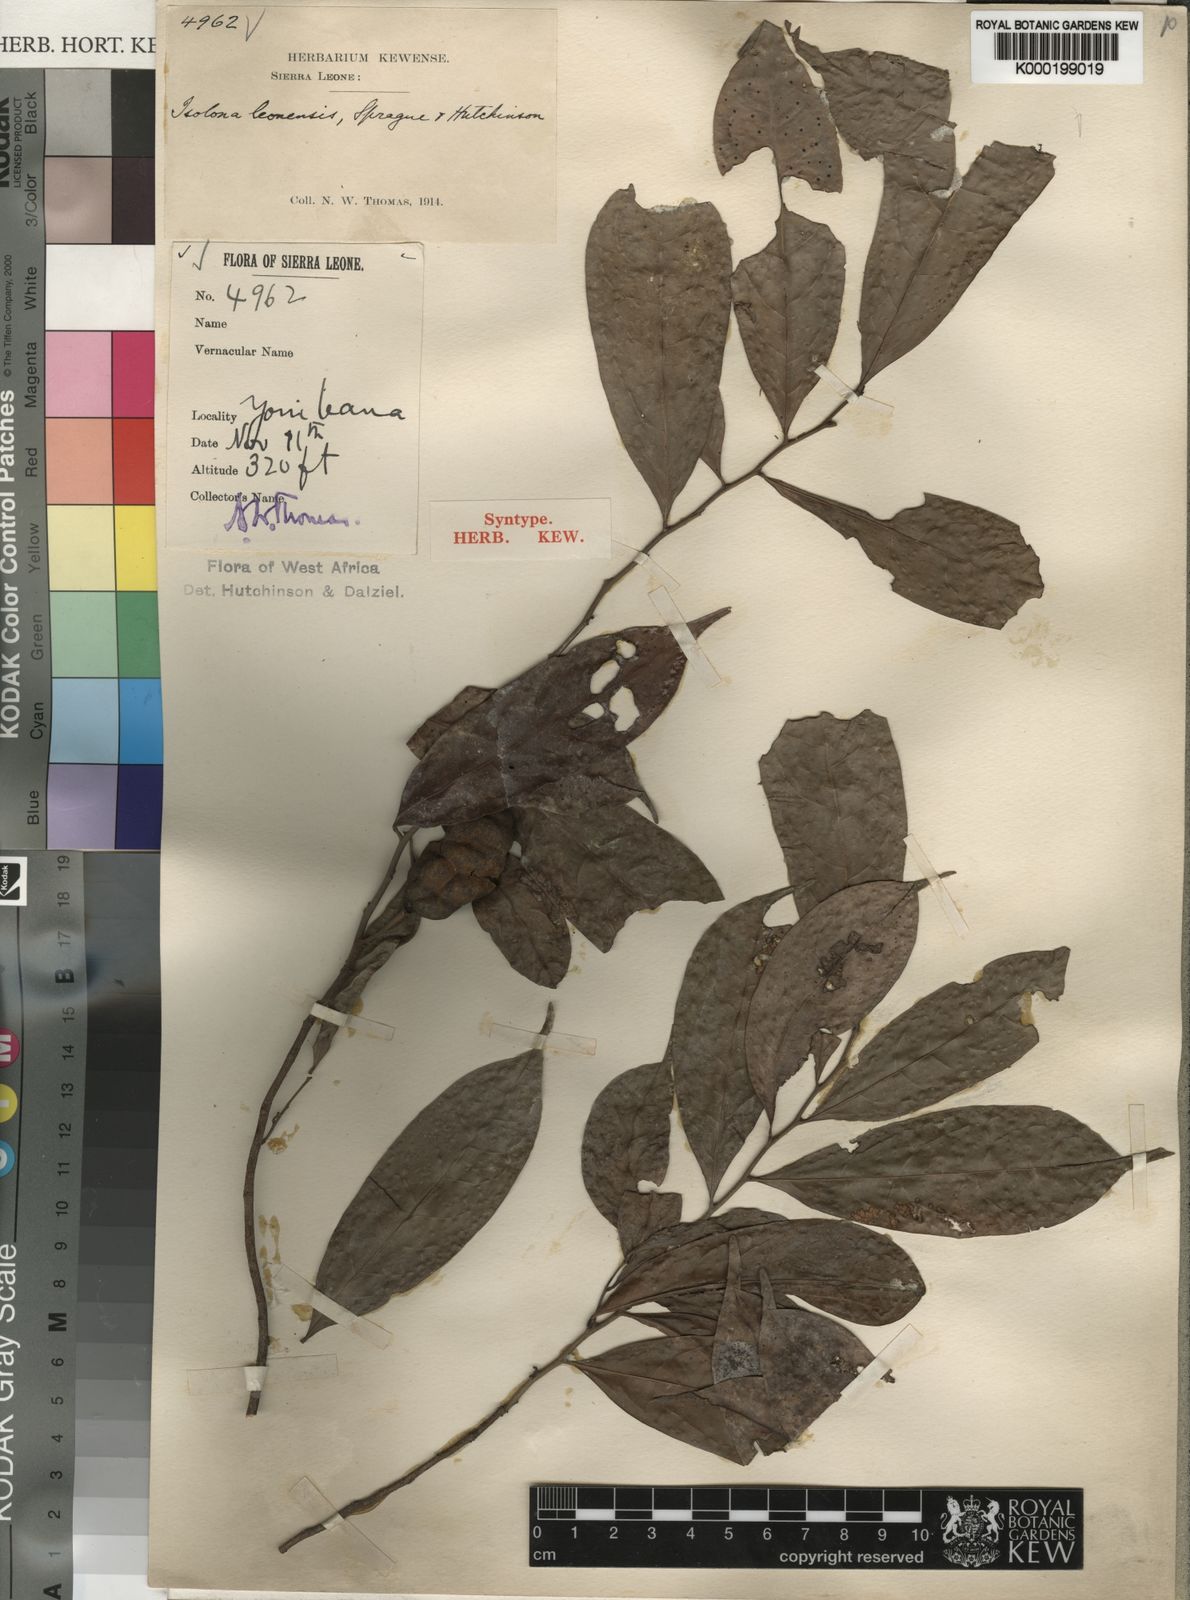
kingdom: Plantae
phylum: Tracheophyta
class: Magnoliopsida
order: Magnoliales
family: Annonaceae
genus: Isolona
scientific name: Isolona campanulata
